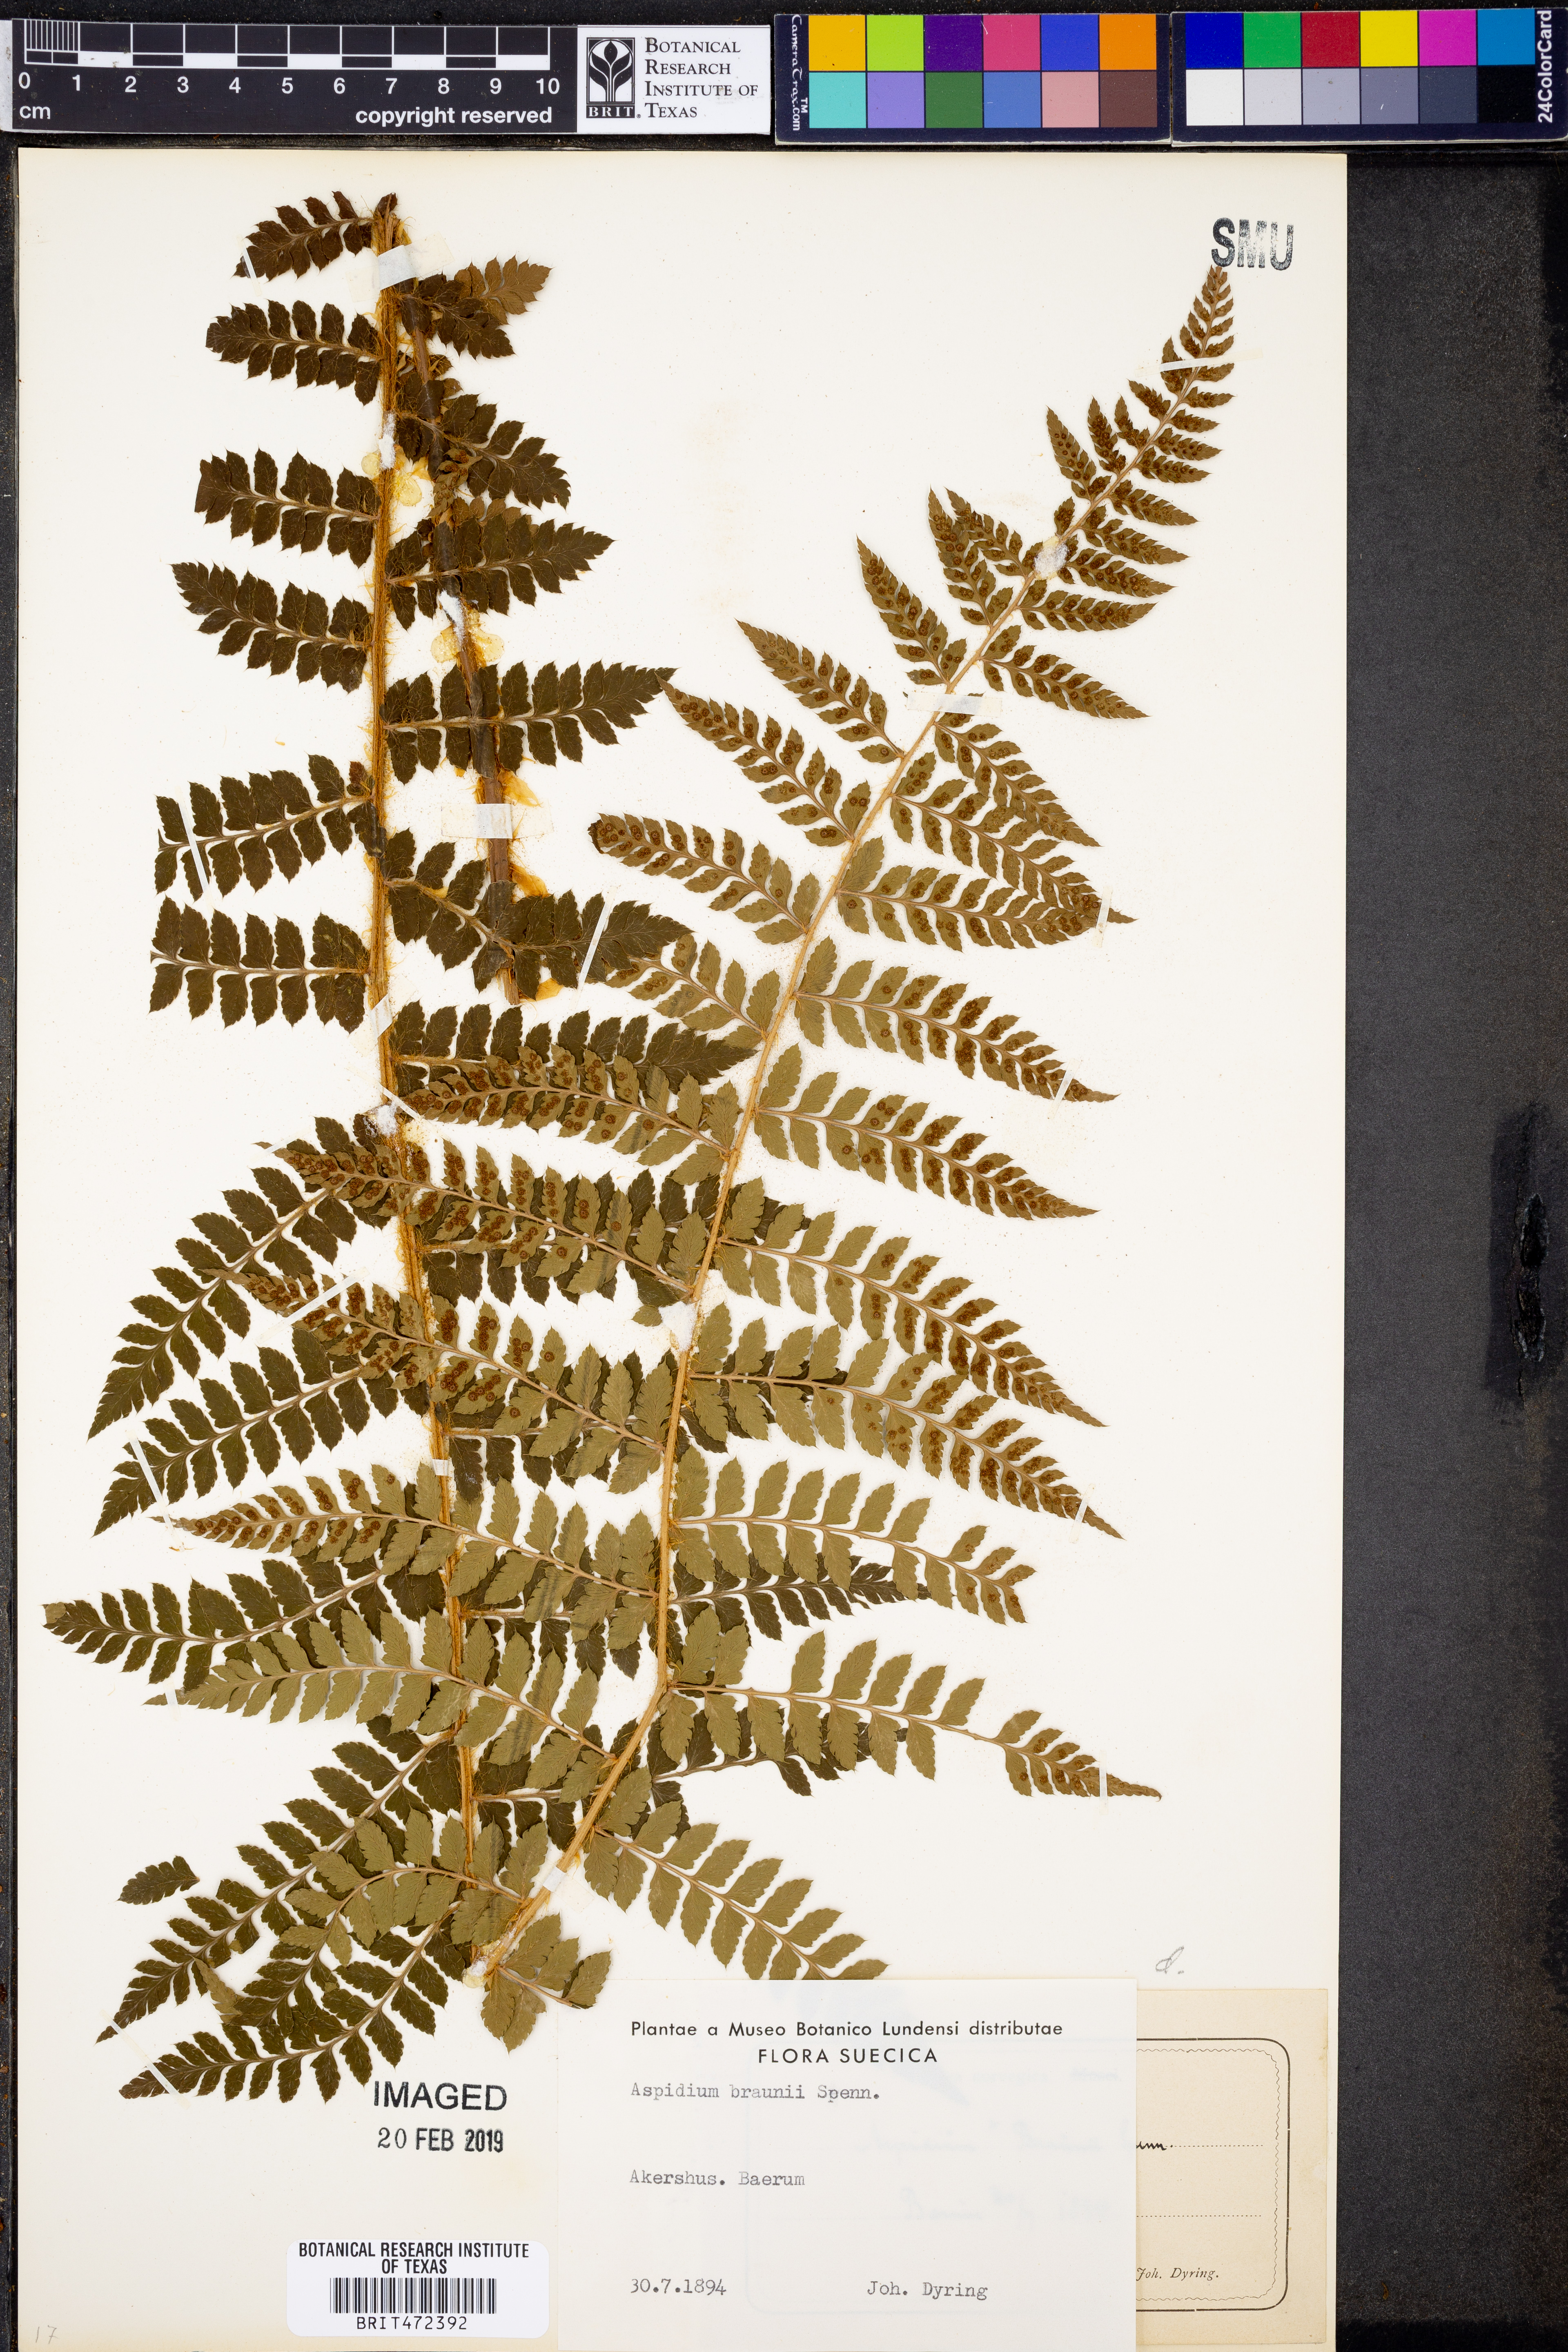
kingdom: Plantae
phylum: Tracheophyta
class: Polypodiopsida
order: Polypodiales
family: Dryopteridaceae
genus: Polystichum
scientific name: Polystichum braunii
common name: Braun's holly fern
